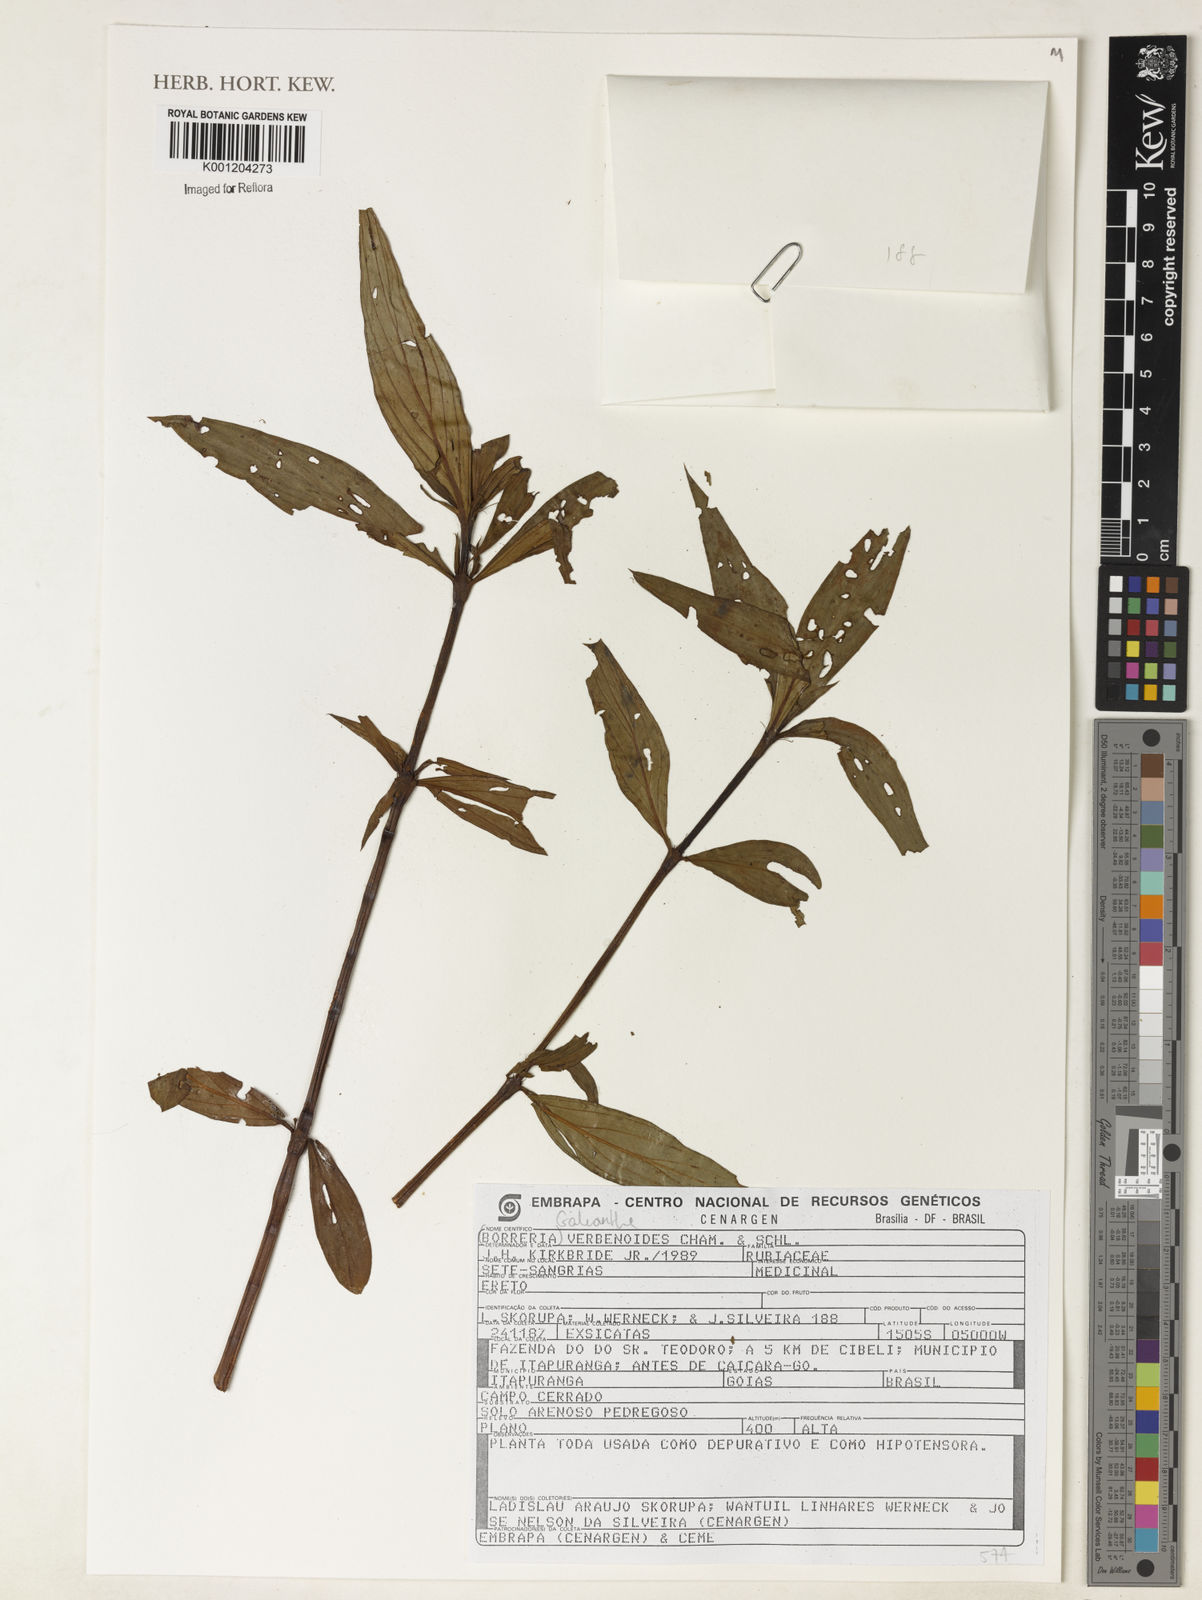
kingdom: Plantae
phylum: Tracheophyta
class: Magnoliopsida
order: Gentianales
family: Rubiaceae
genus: Galianthe
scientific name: Galianthe verbenoides
